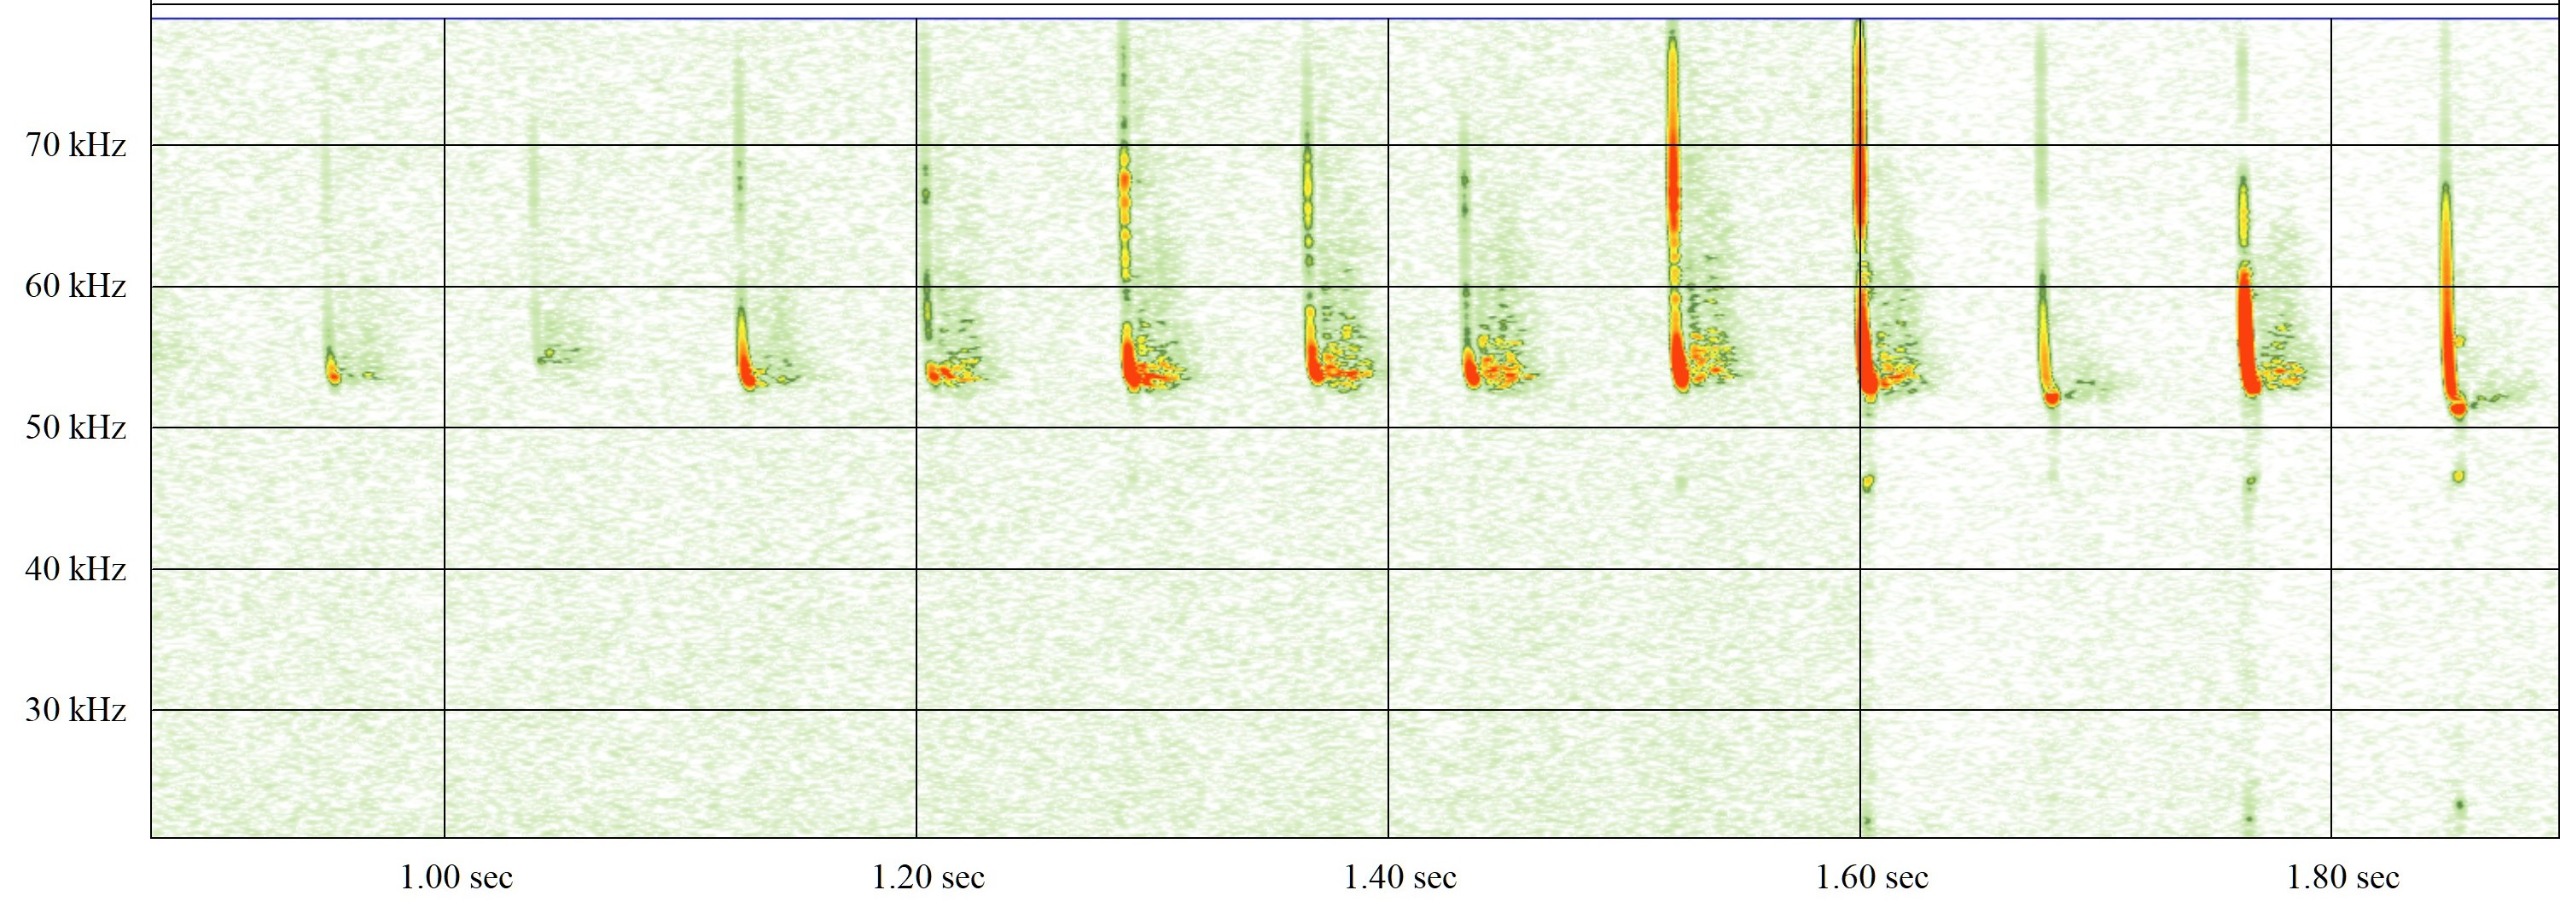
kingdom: Animalia
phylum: Chordata
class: Mammalia
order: Chiroptera
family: Vespertilionidae
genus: Pipistrellus
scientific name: Pipistrellus pygmaeus
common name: Dværgflagermus
